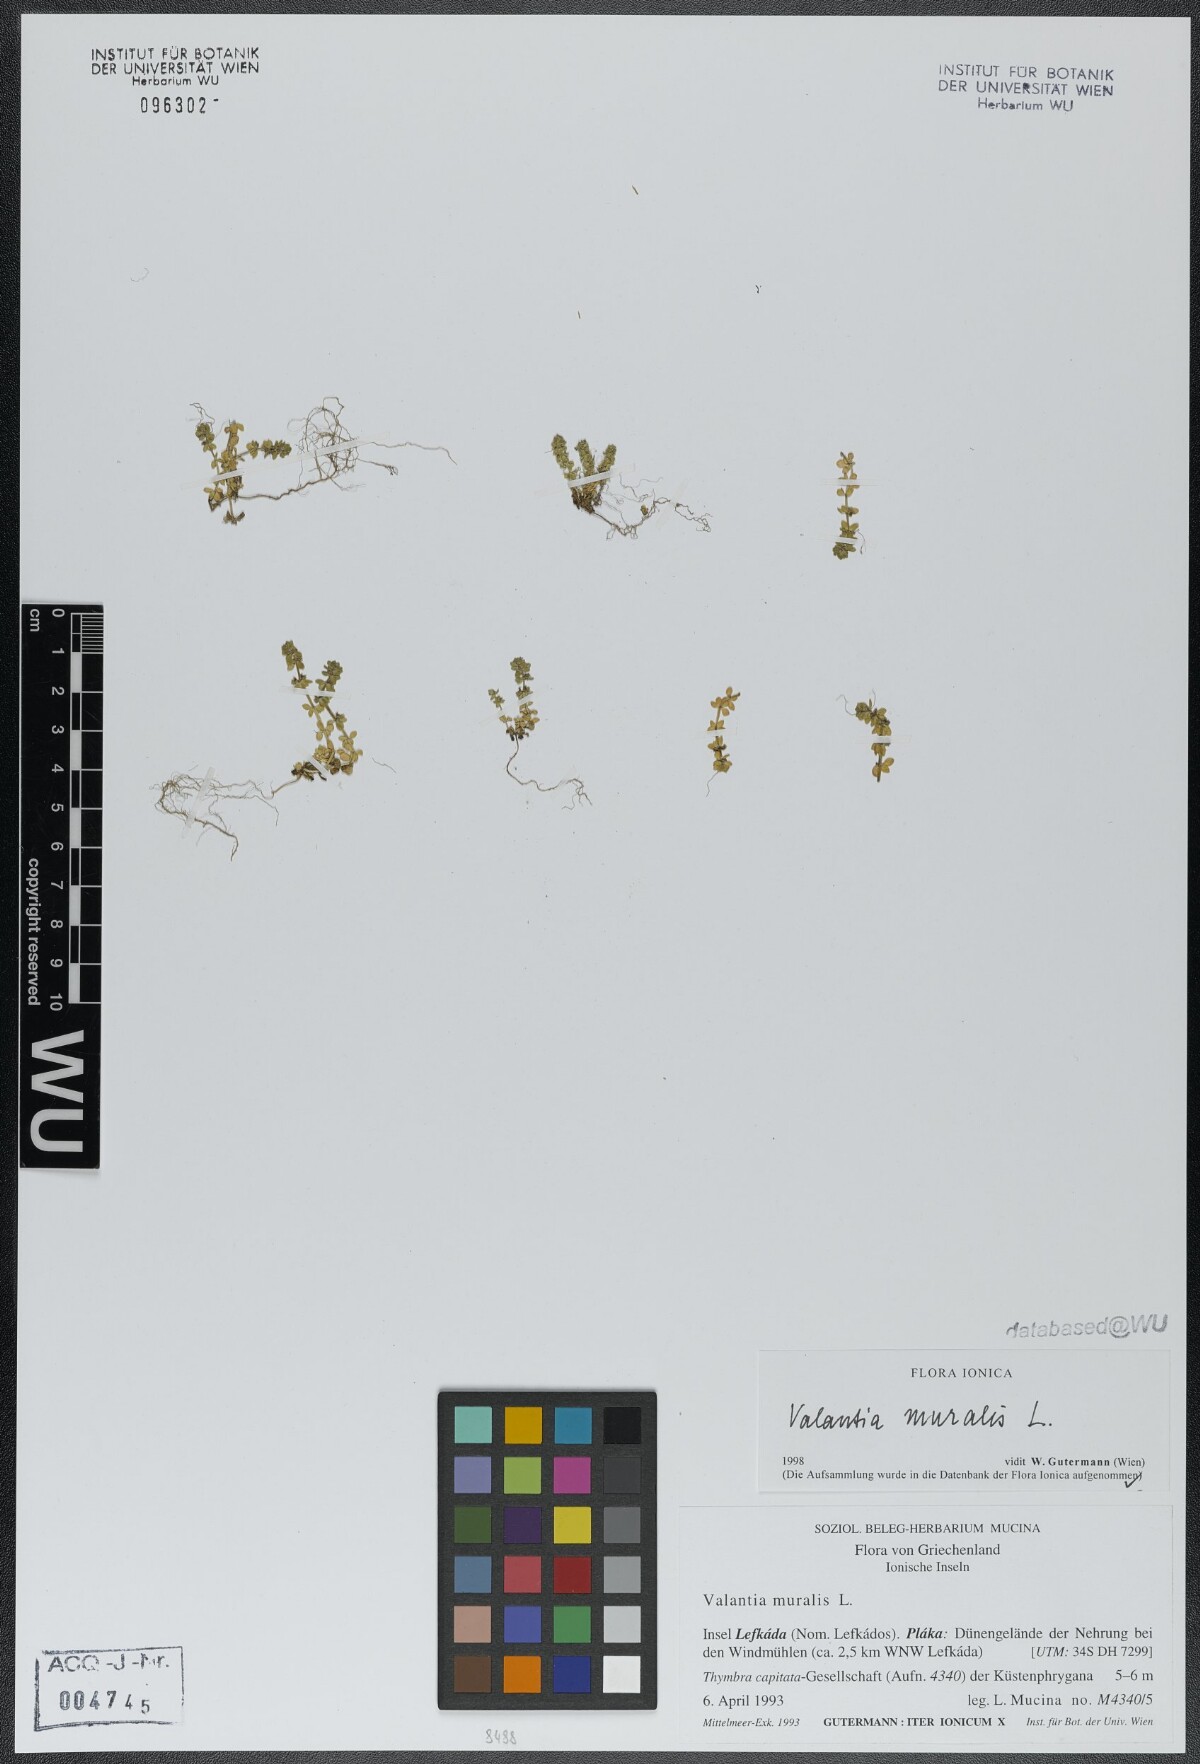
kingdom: Plantae
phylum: Tracheophyta
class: Magnoliopsida
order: Gentianales
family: Rubiaceae
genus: Valantia
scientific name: Valantia muralis
